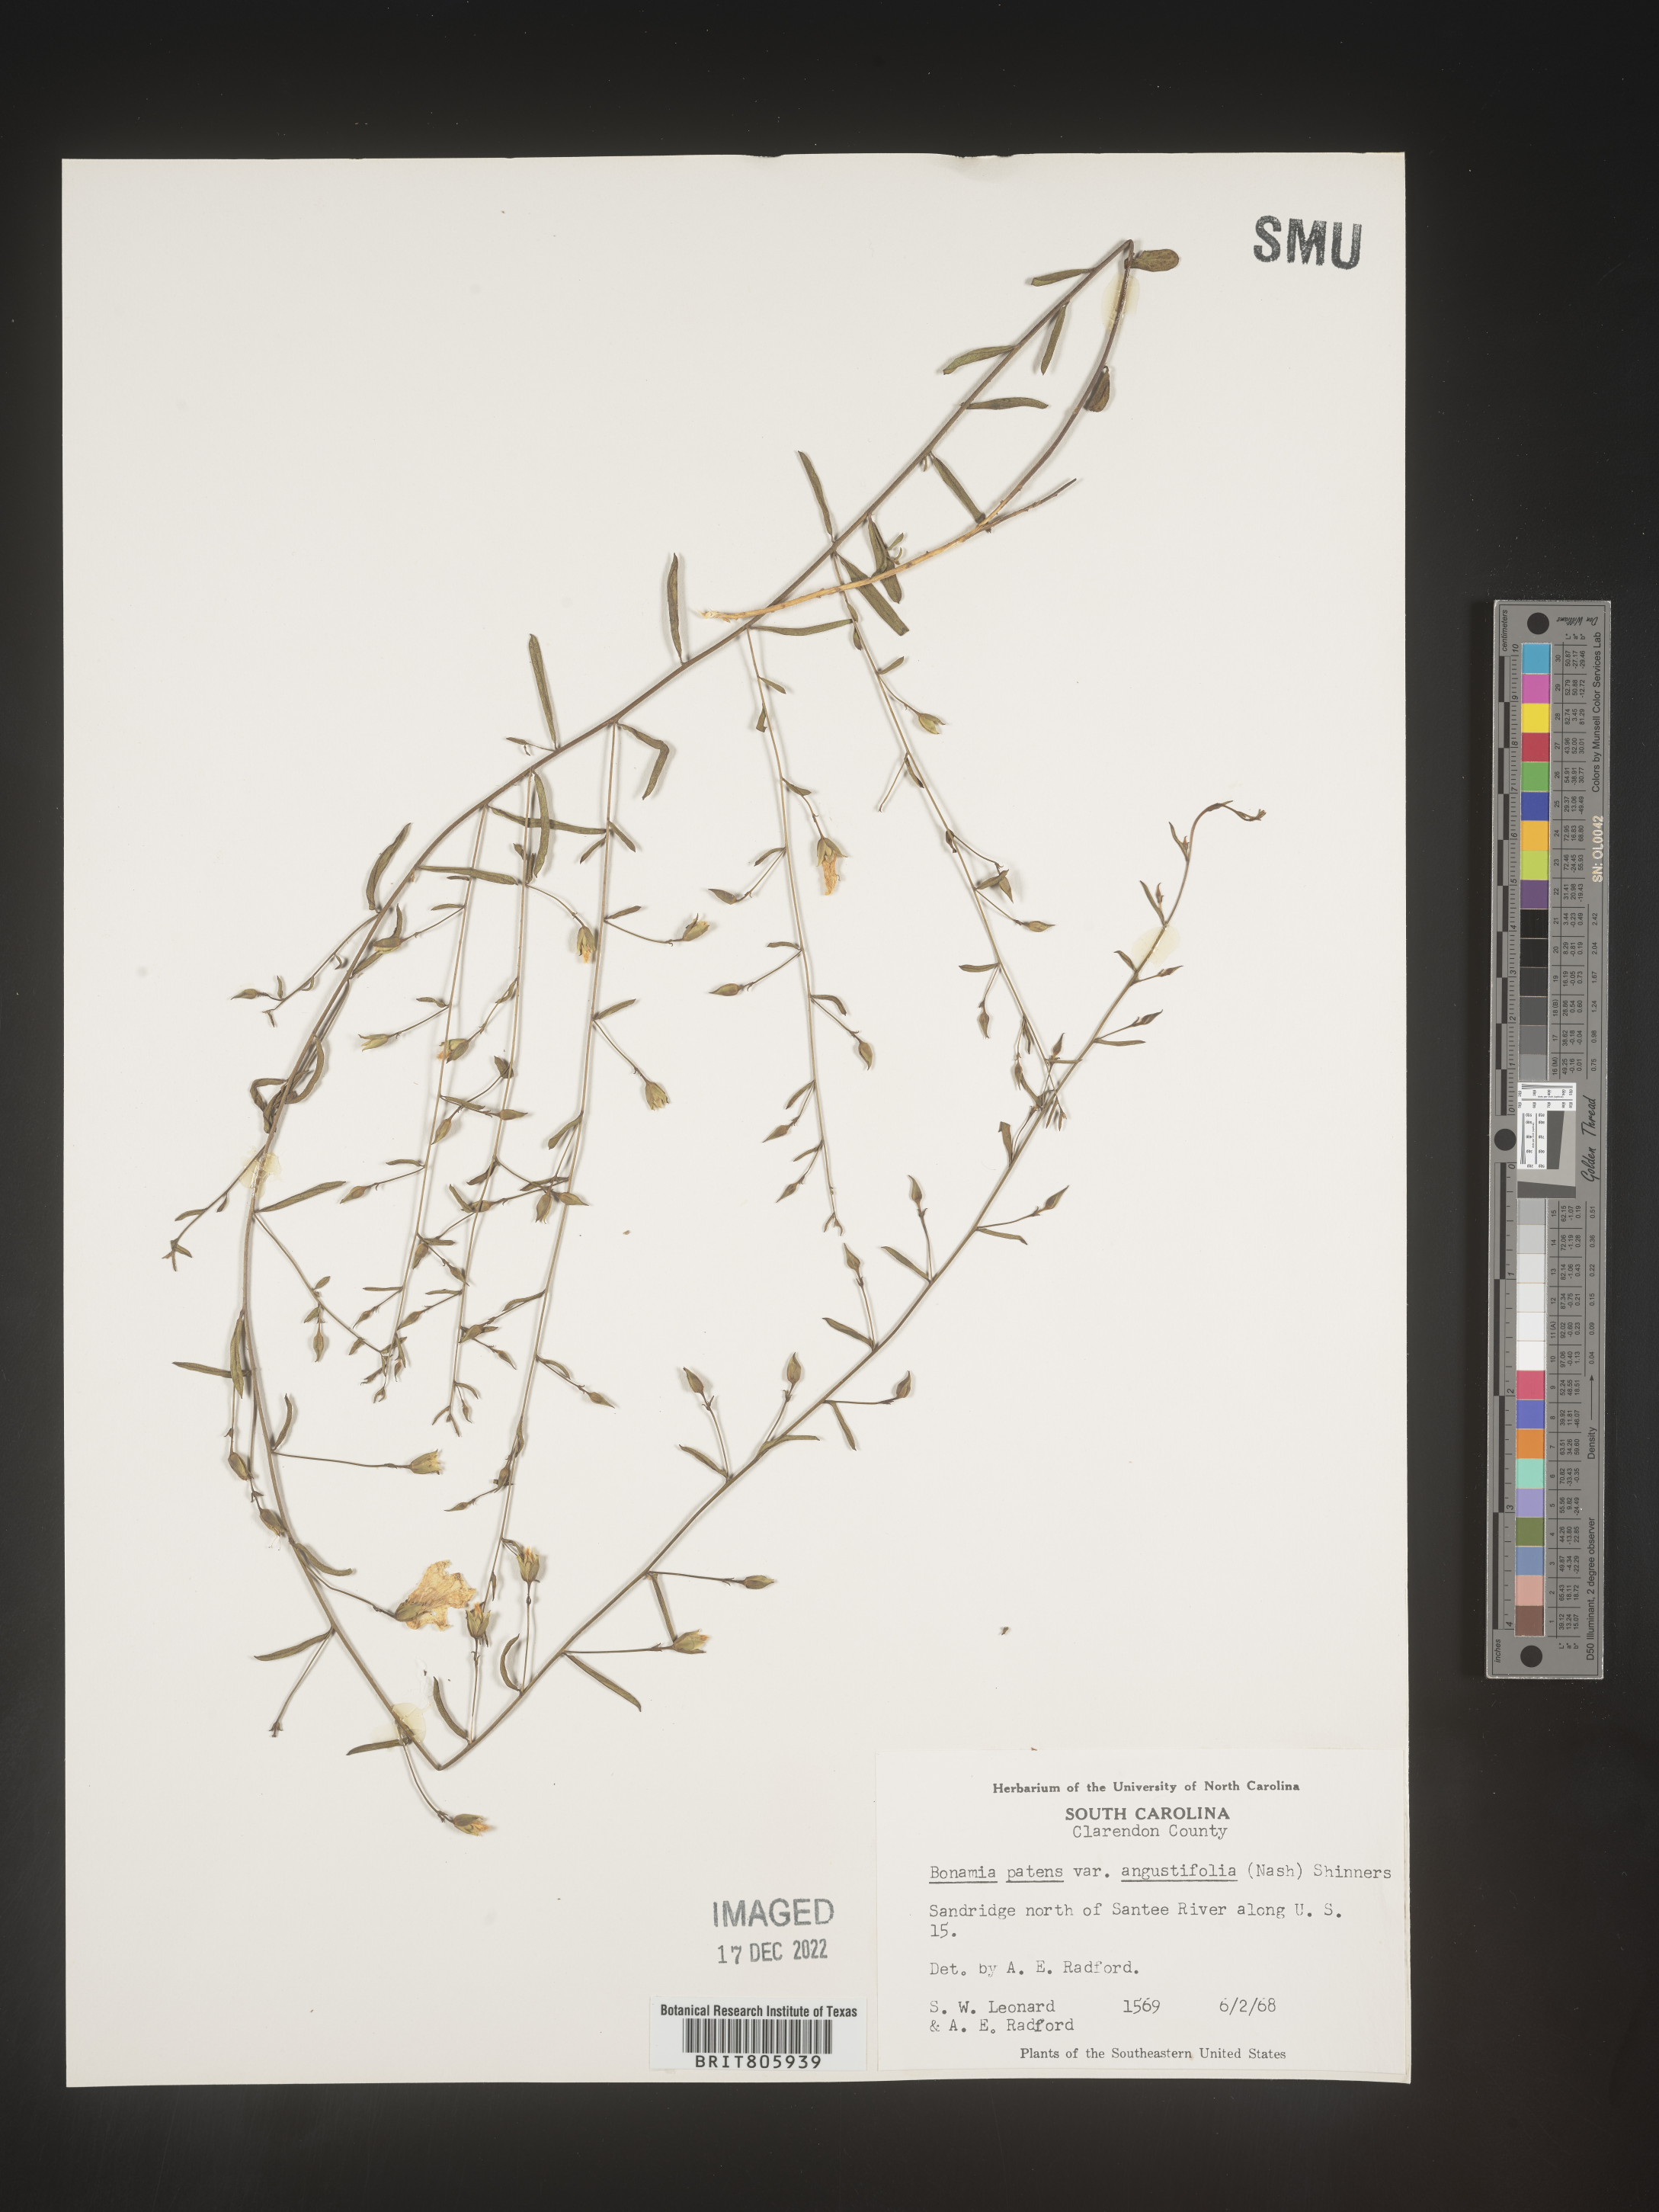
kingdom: Plantae
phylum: Tracheophyta
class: Magnoliopsida
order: Solanales
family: Convolvulaceae
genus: Stylisma
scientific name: Stylisma
